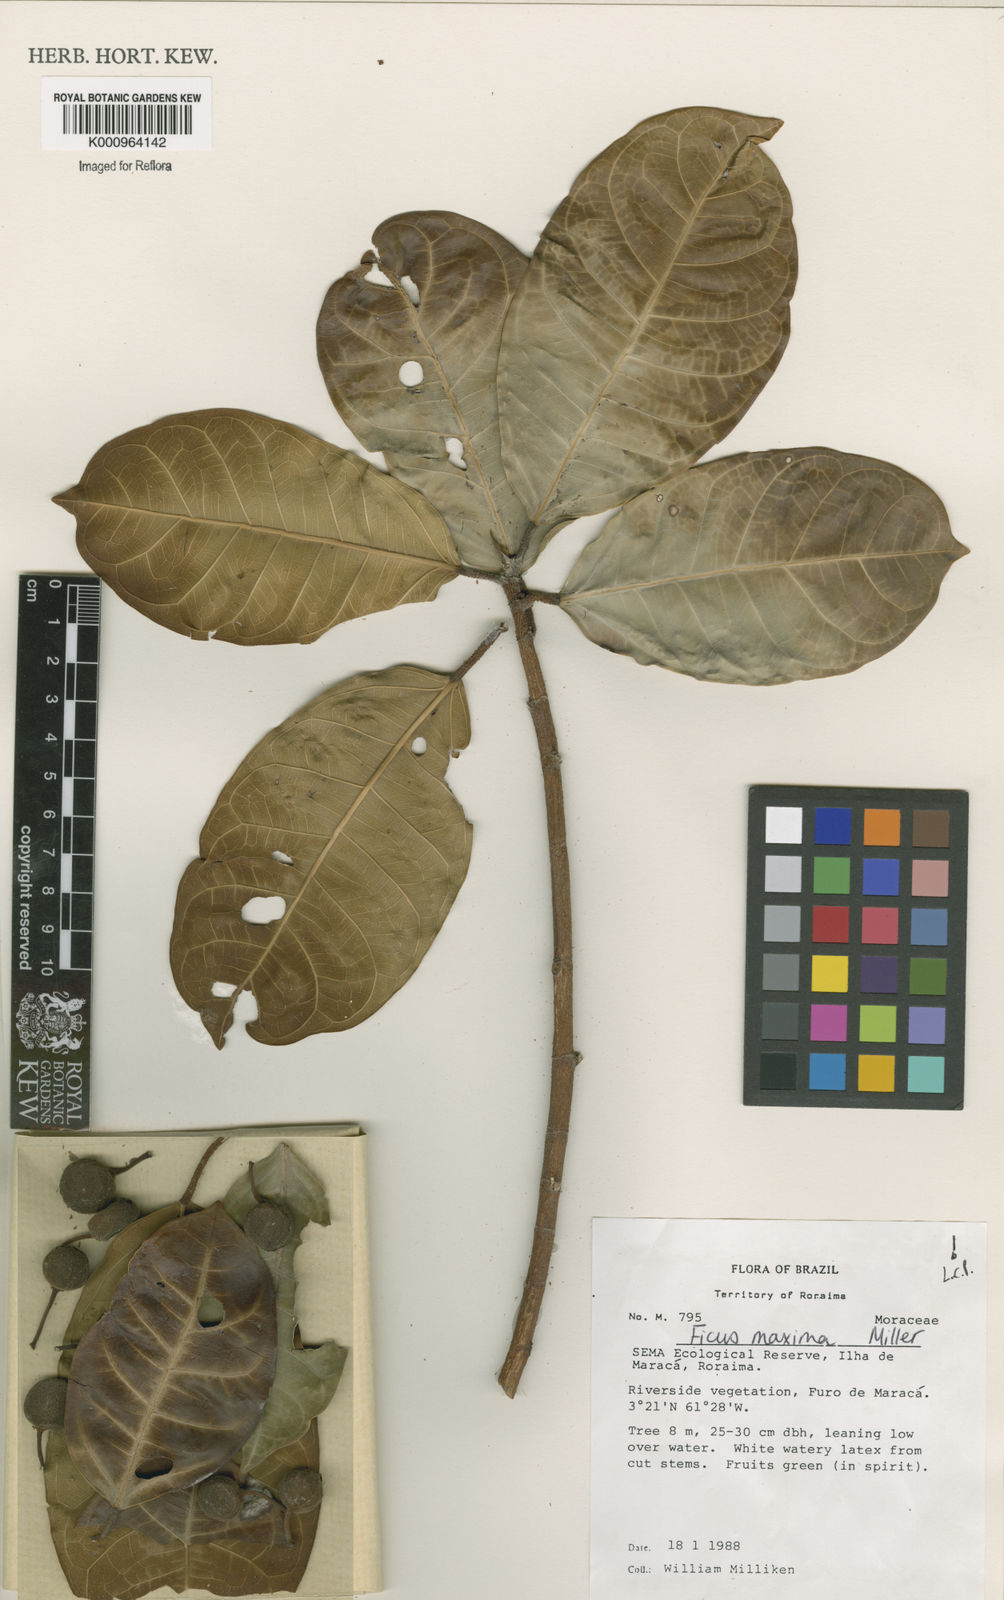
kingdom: Plantae
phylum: Tracheophyta
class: Magnoliopsida
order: Rosales
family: Moraceae
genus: Ficus
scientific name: Ficus maxima
